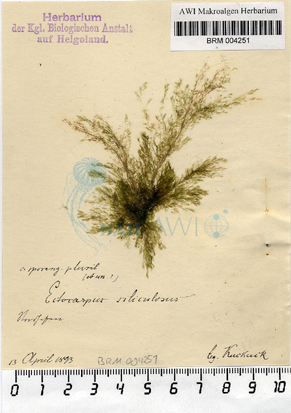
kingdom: Chromista
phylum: Ochrophyta
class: Phaeophyceae
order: Ectocarpales
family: Ectocarpaceae
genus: Ectocarpus
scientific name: Ectocarpus siliculosus
